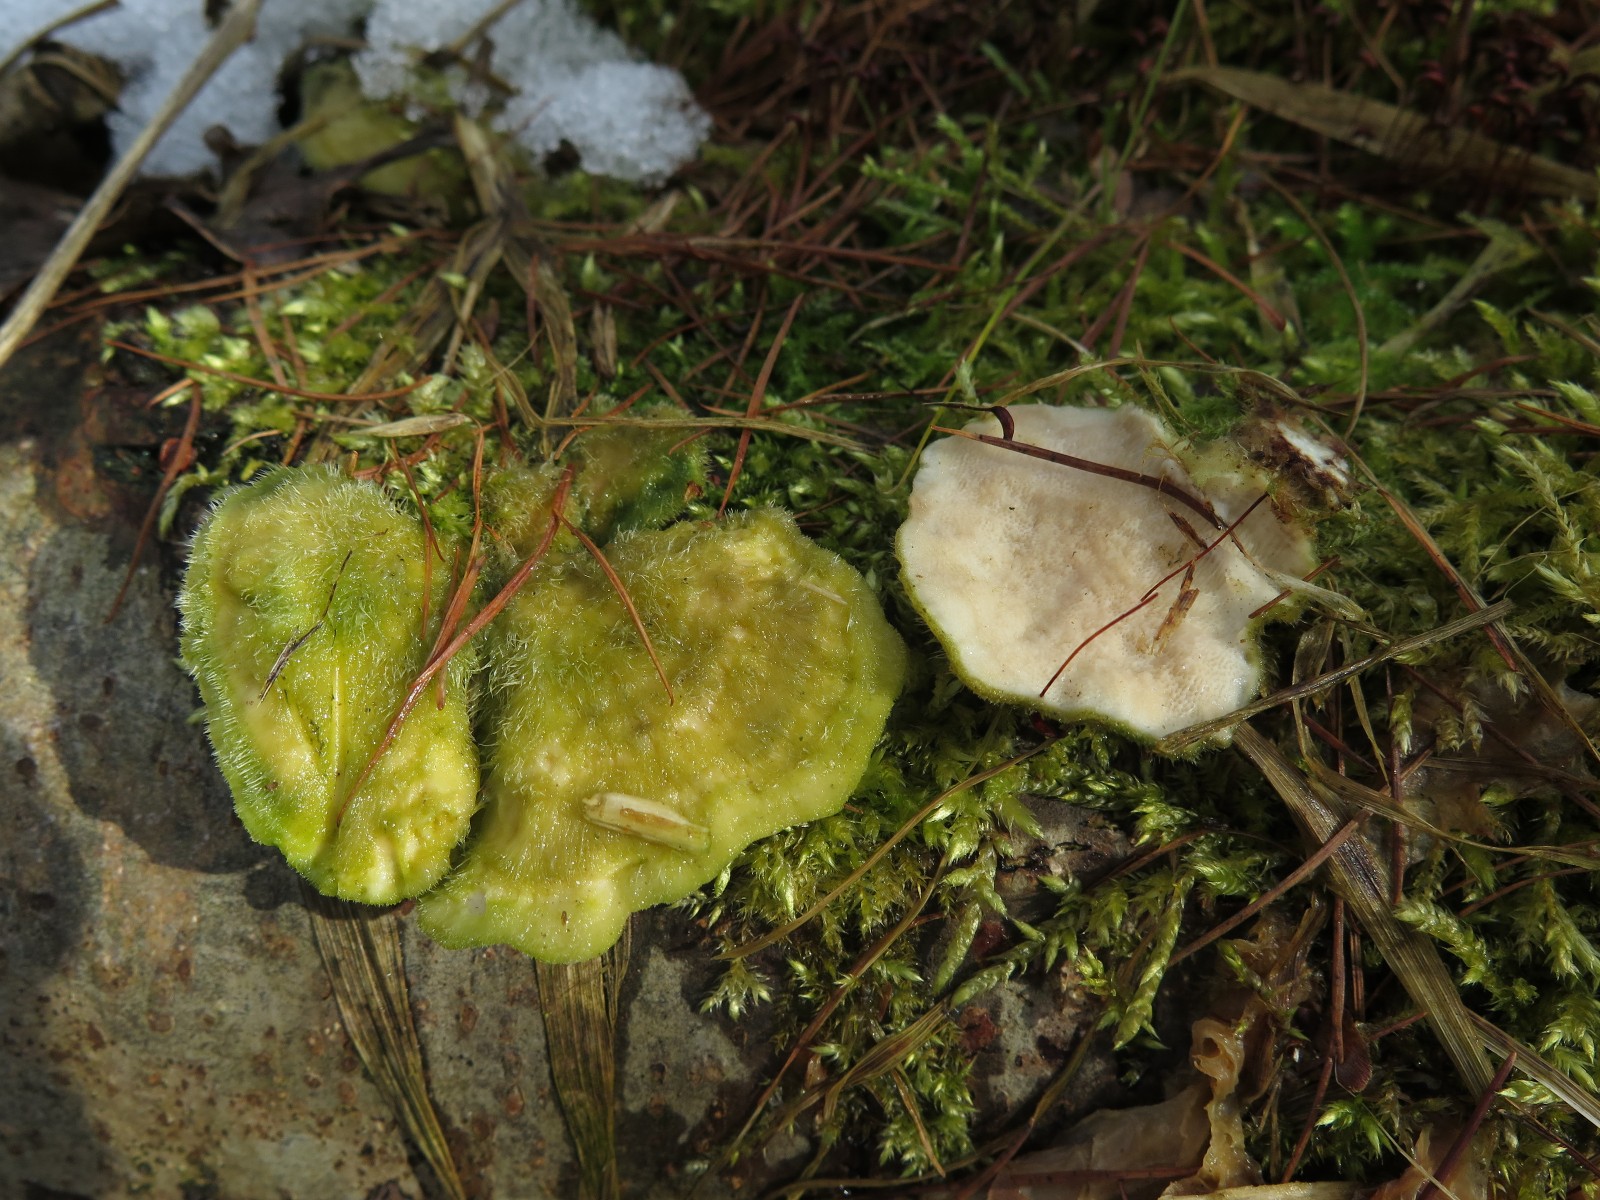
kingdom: Fungi
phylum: Basidiomycota
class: Agaricomycetes
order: Polyporales
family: Polyporaceae
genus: Trametes
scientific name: Trametes hirsuta
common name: håret læderporesvamp
